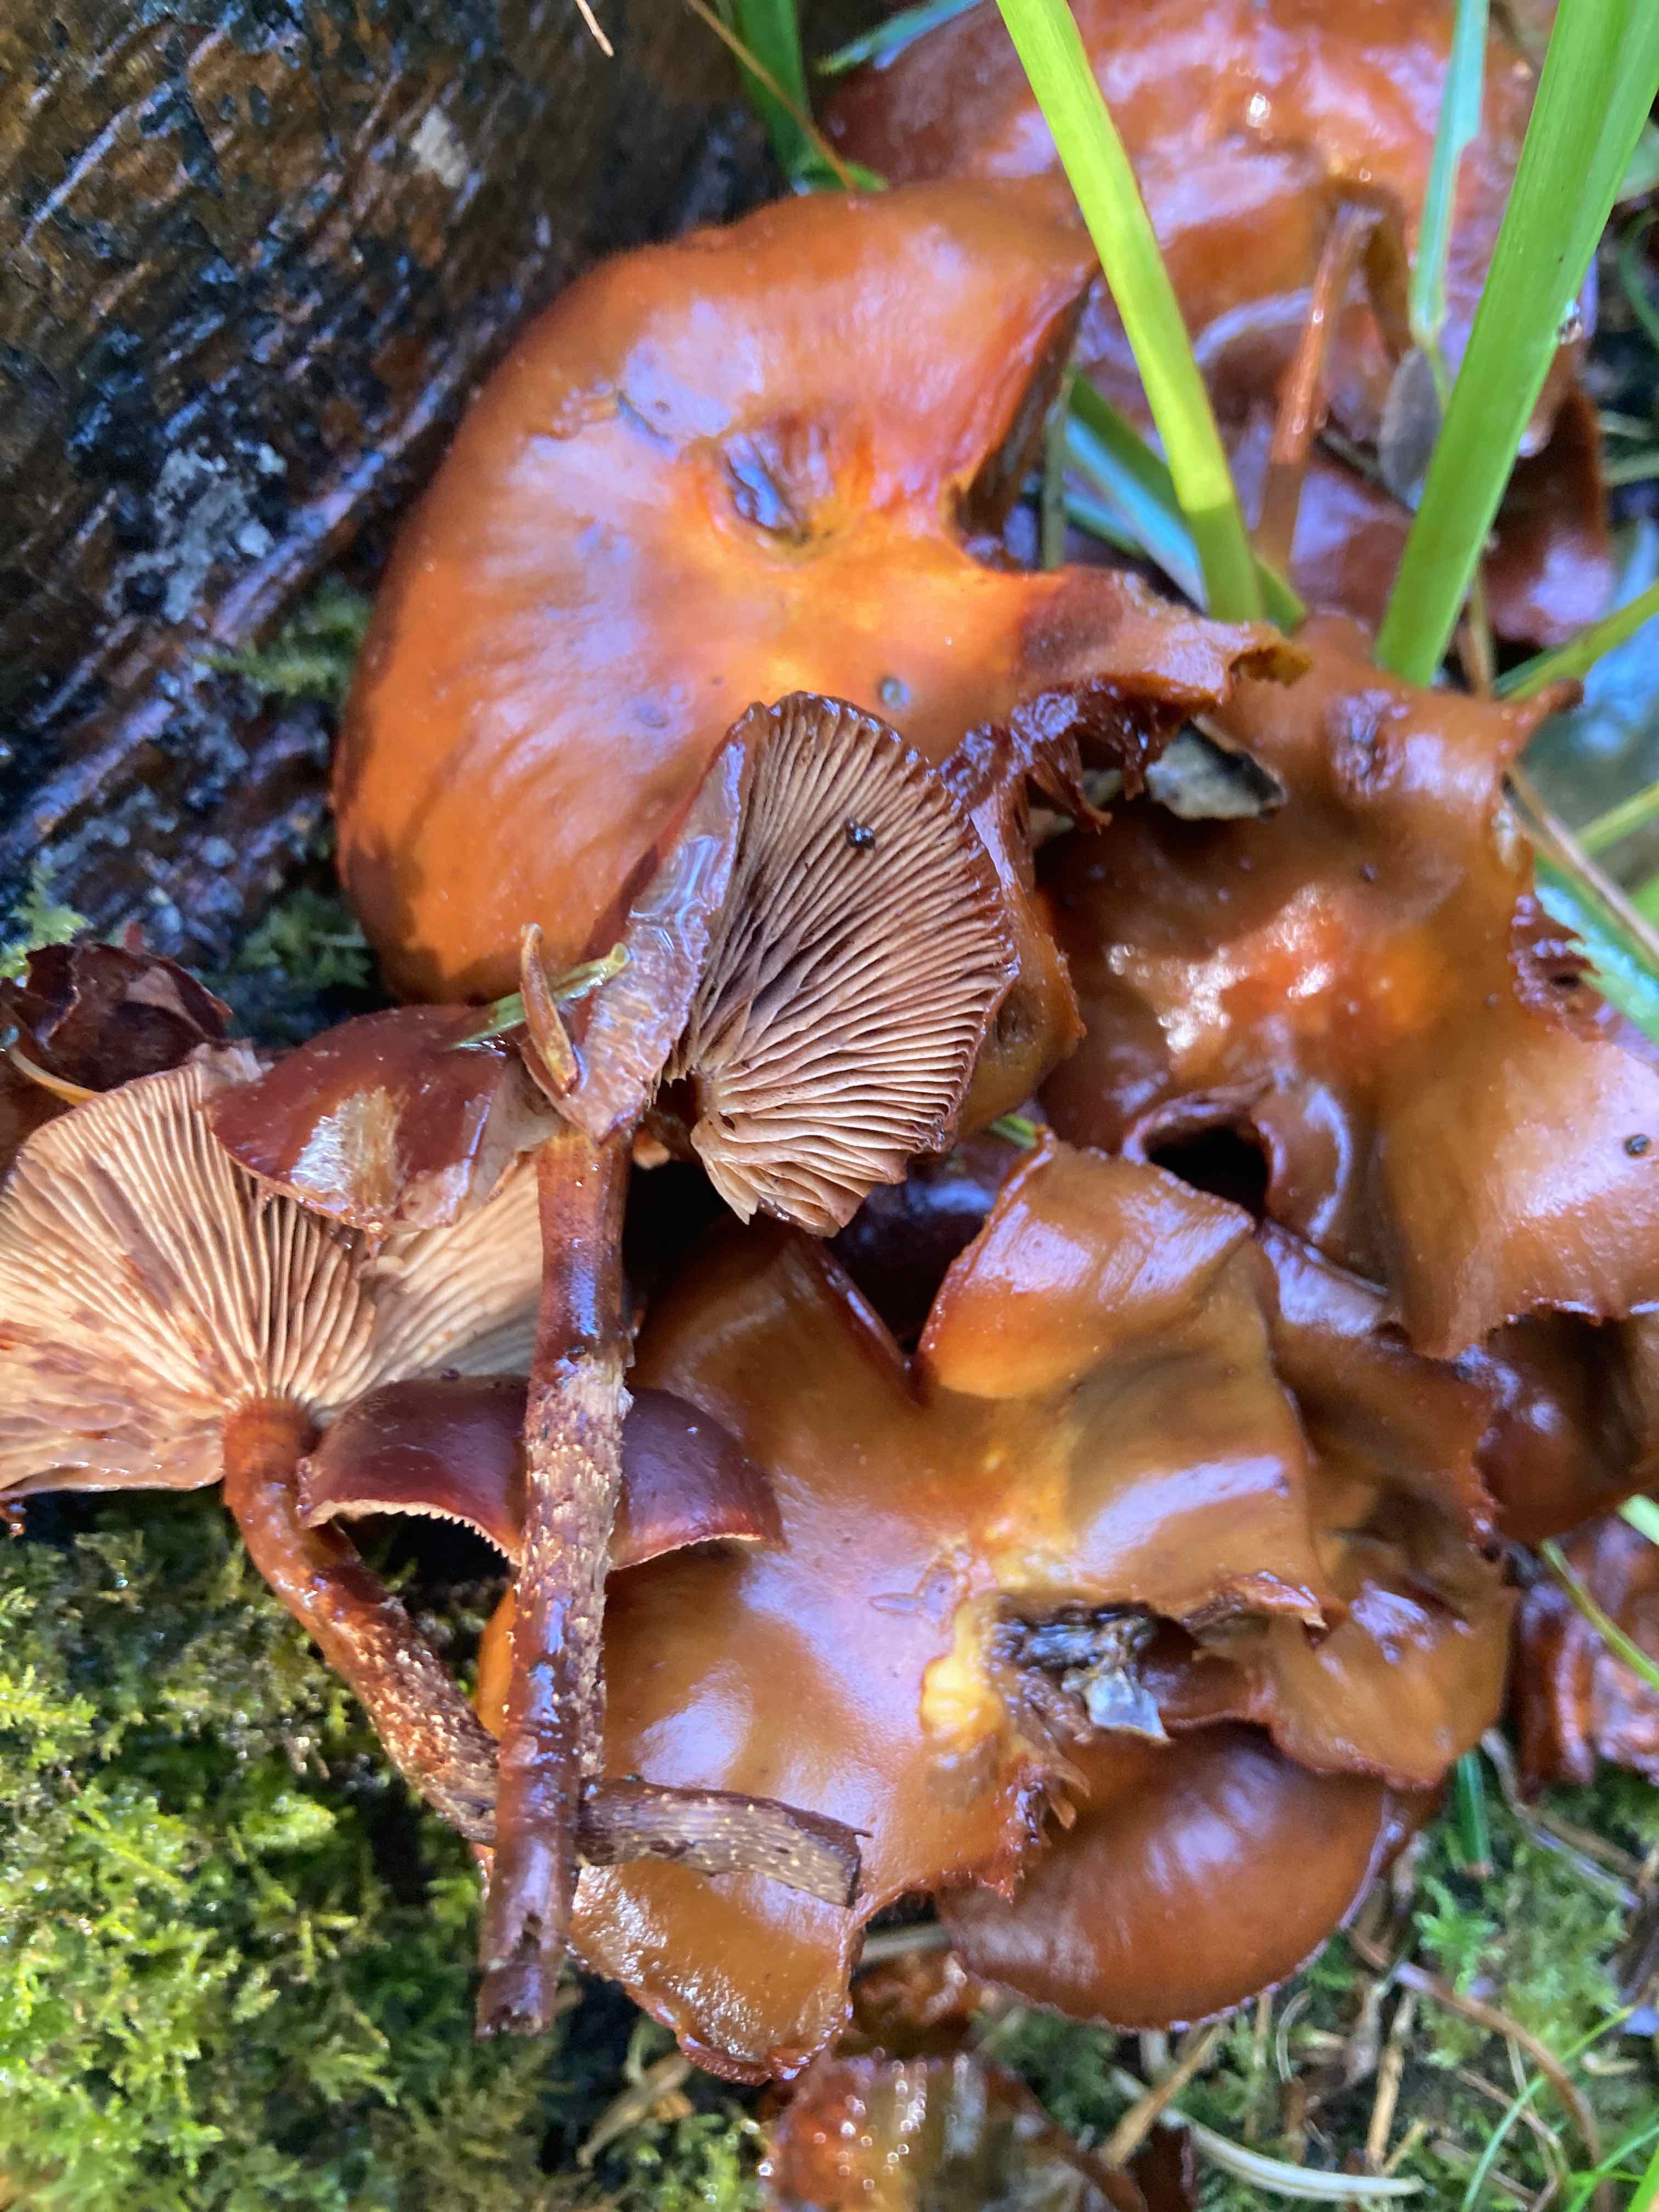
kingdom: Fungi
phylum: Basidiomycota
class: Agaricomycetes
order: Agaricales
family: Strophariaceae
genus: Kuehneromyces
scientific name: Kuehneromyces mutabilis
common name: foranderlig skælhat
